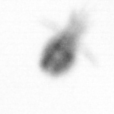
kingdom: Animalia
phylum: Arthropoda
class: Maxillopoda
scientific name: Maxillopoda
